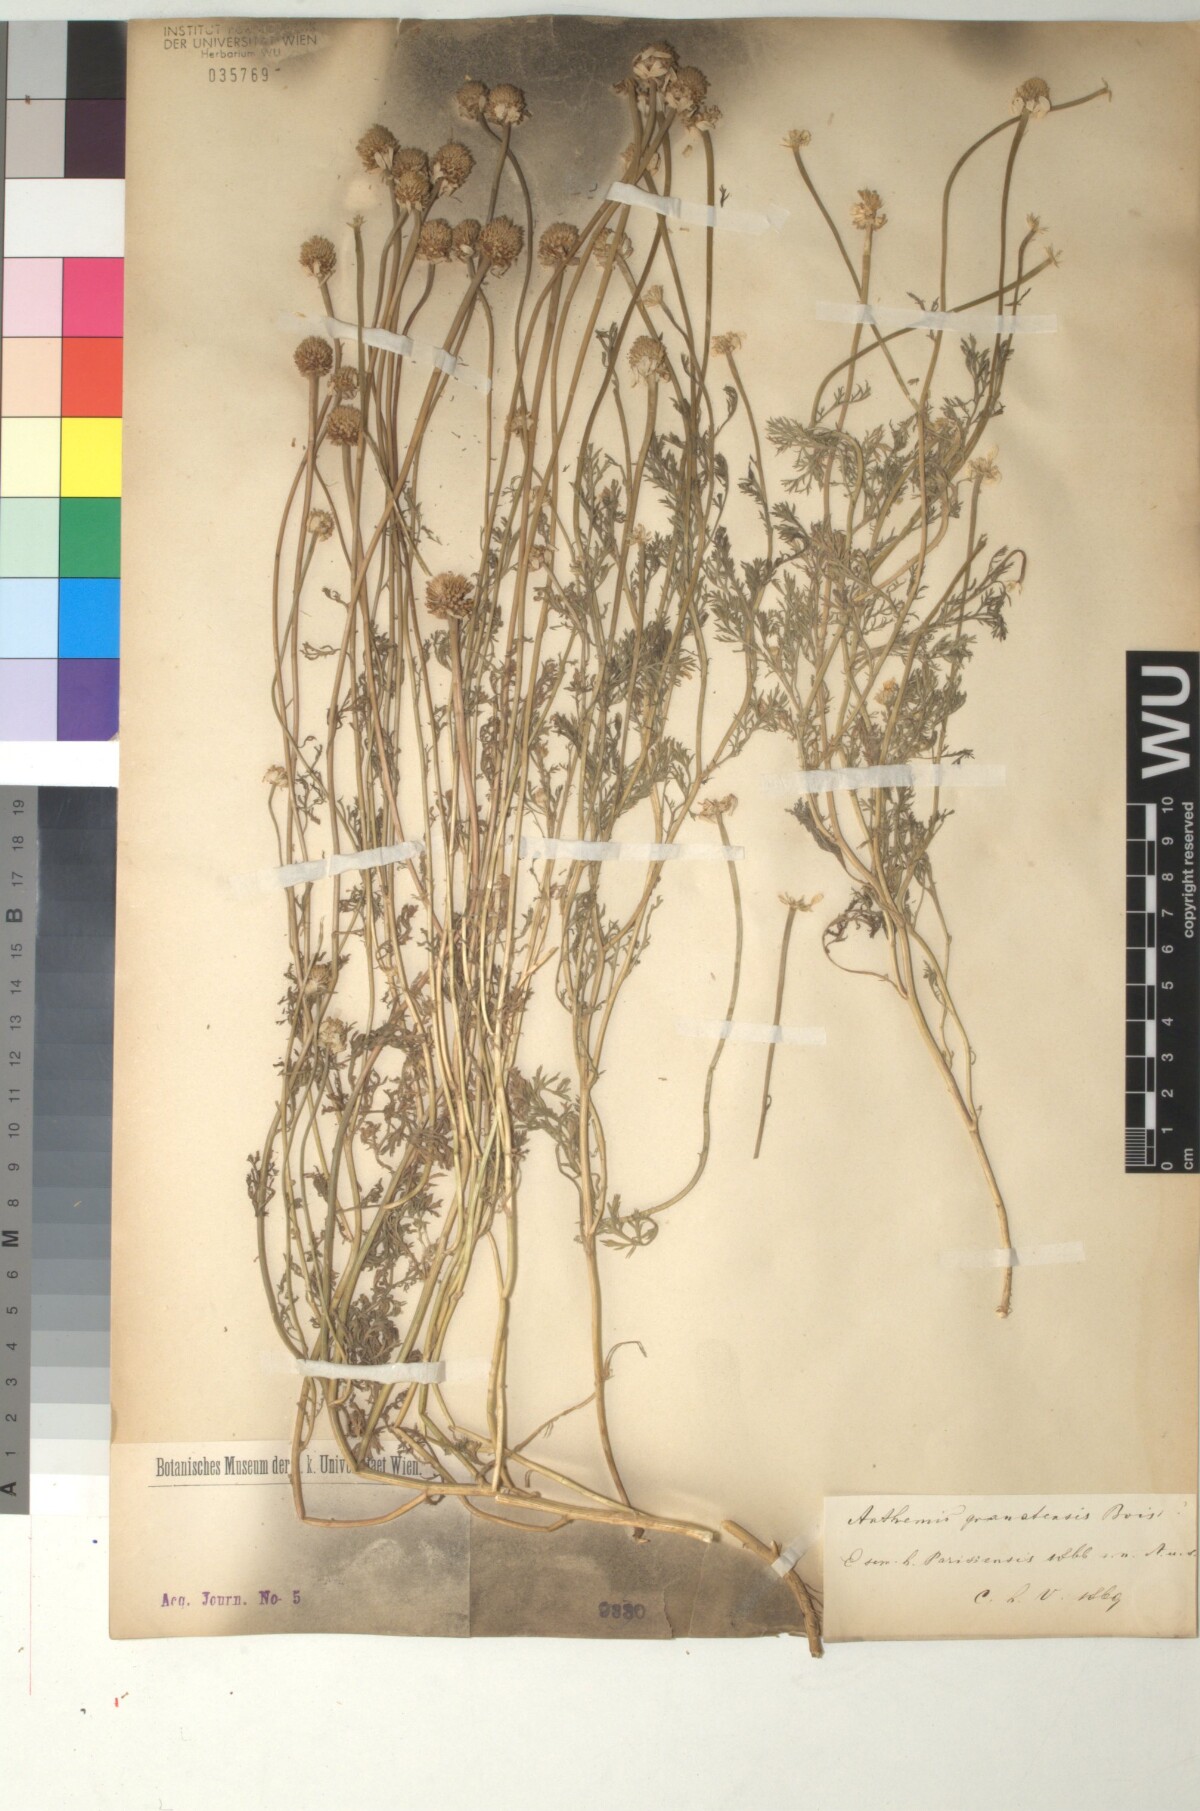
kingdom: Plantae
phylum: Tracheophyta
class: Magnoliopsida
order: Asterales
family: Asteraceae
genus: Anthemis
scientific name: Anthemis arvensis
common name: Corn chamomile
